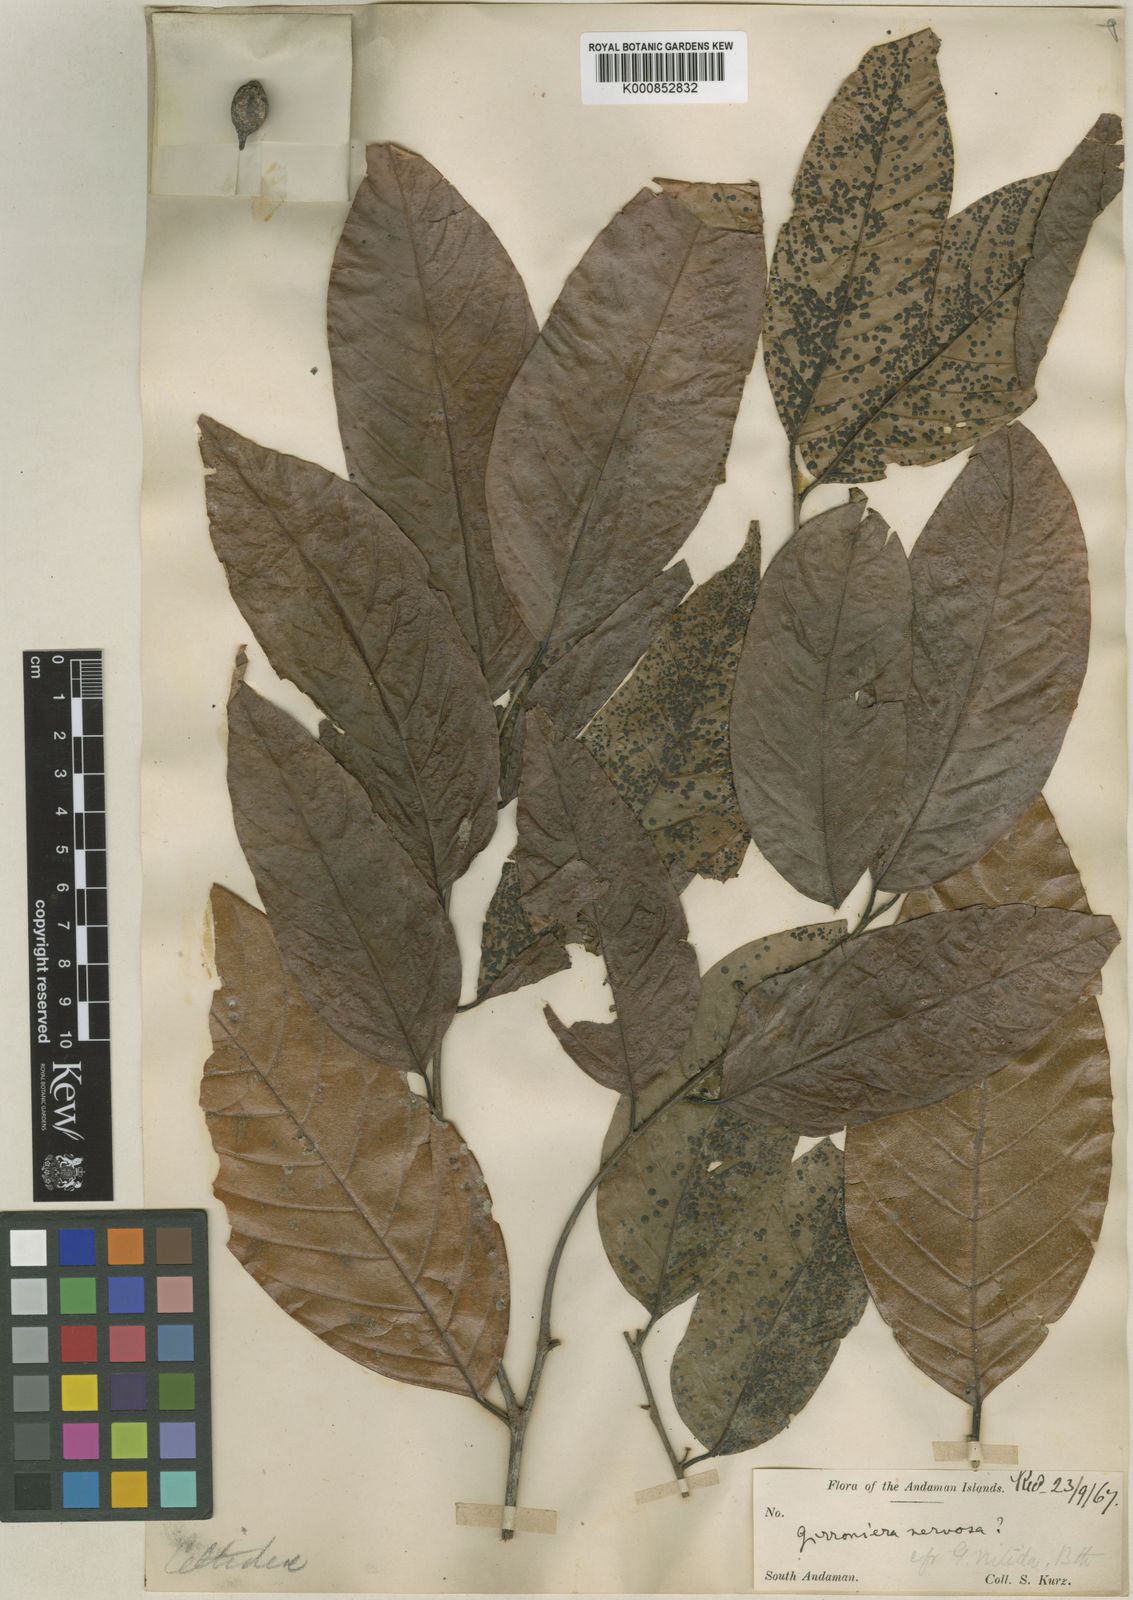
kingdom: Plantae
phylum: Tracheophyta
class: Magnoliopsida
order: Rosales
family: Cannabaceae
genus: Aphananthe
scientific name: Aphananthe cuspidata
